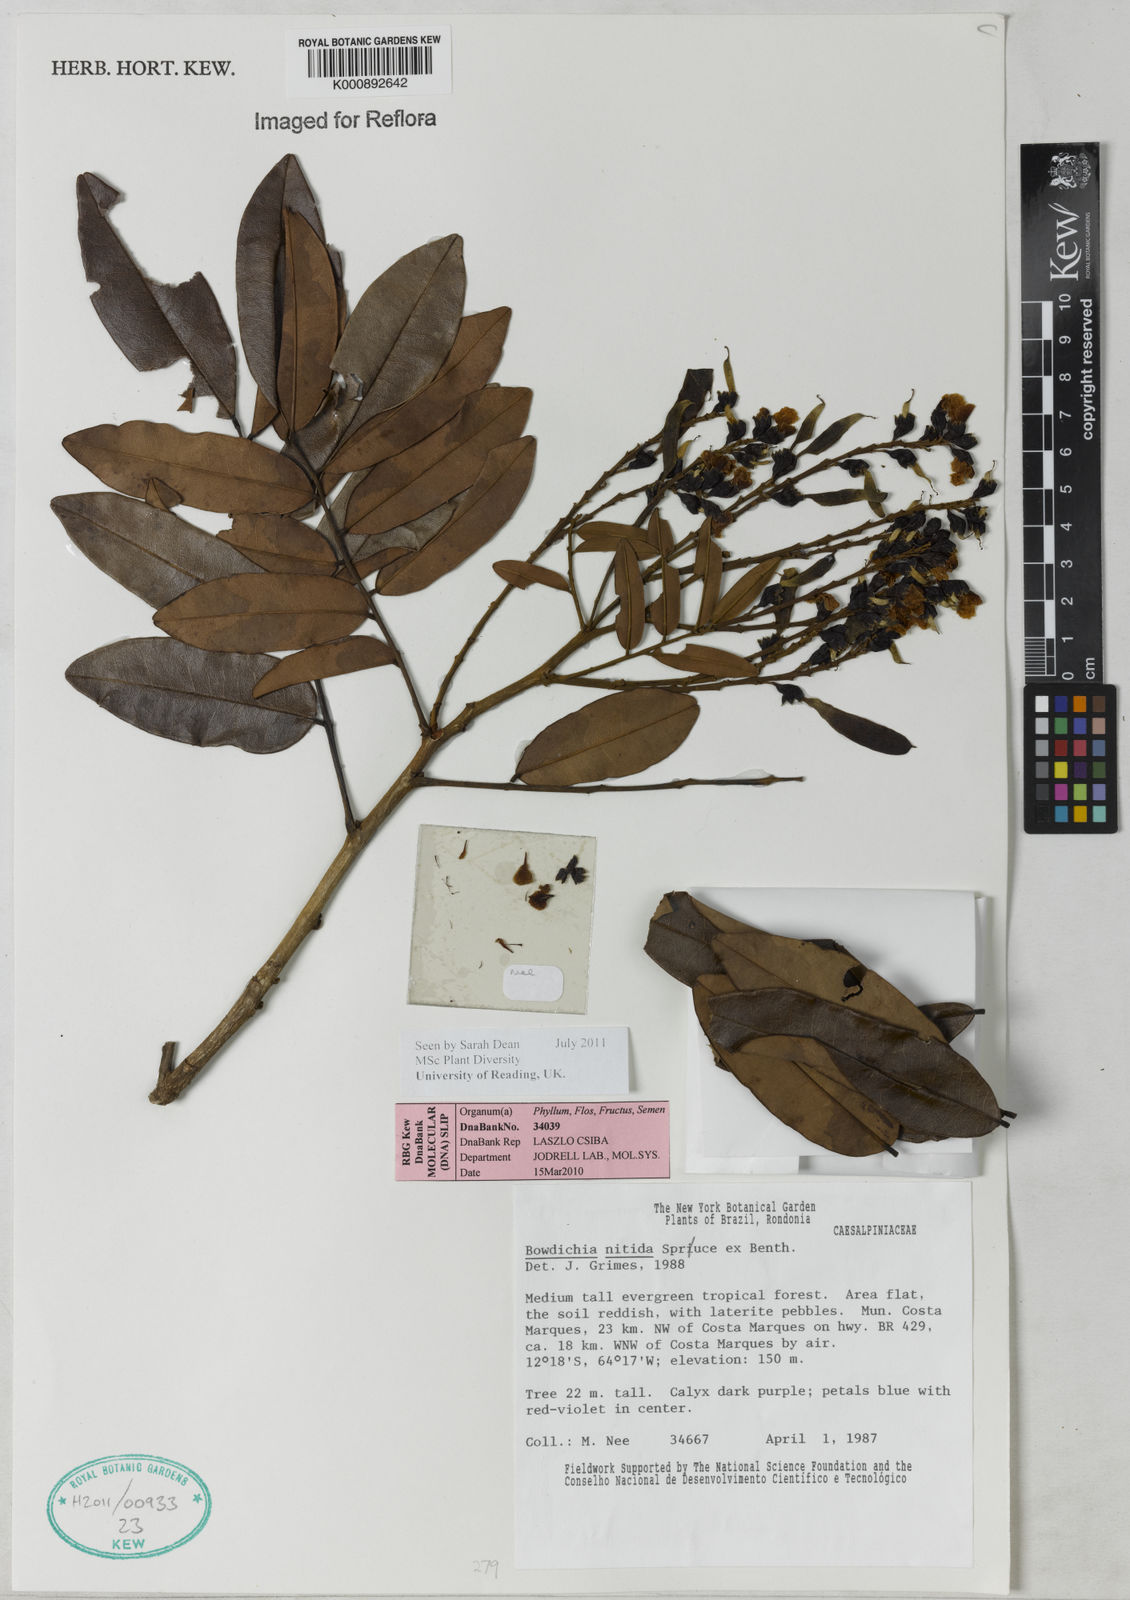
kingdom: Plantae
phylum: Tracheophyta
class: Magnoliopsida
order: Fabales
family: Fabaceae
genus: Bowdichia
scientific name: Bowdichia nitida
